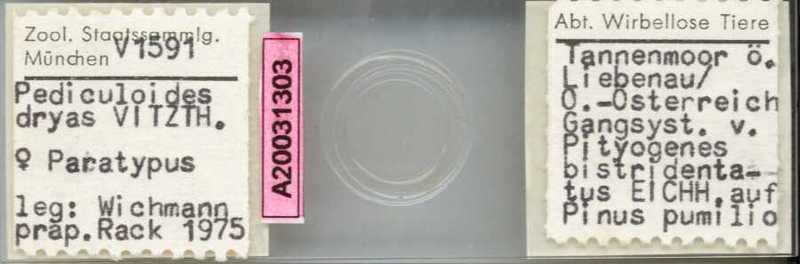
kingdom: Animalia
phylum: Arthropoda
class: Arachnida
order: Trombidiformes
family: Pyemotidae
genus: Pyemotes
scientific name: Pyemotes dryas
